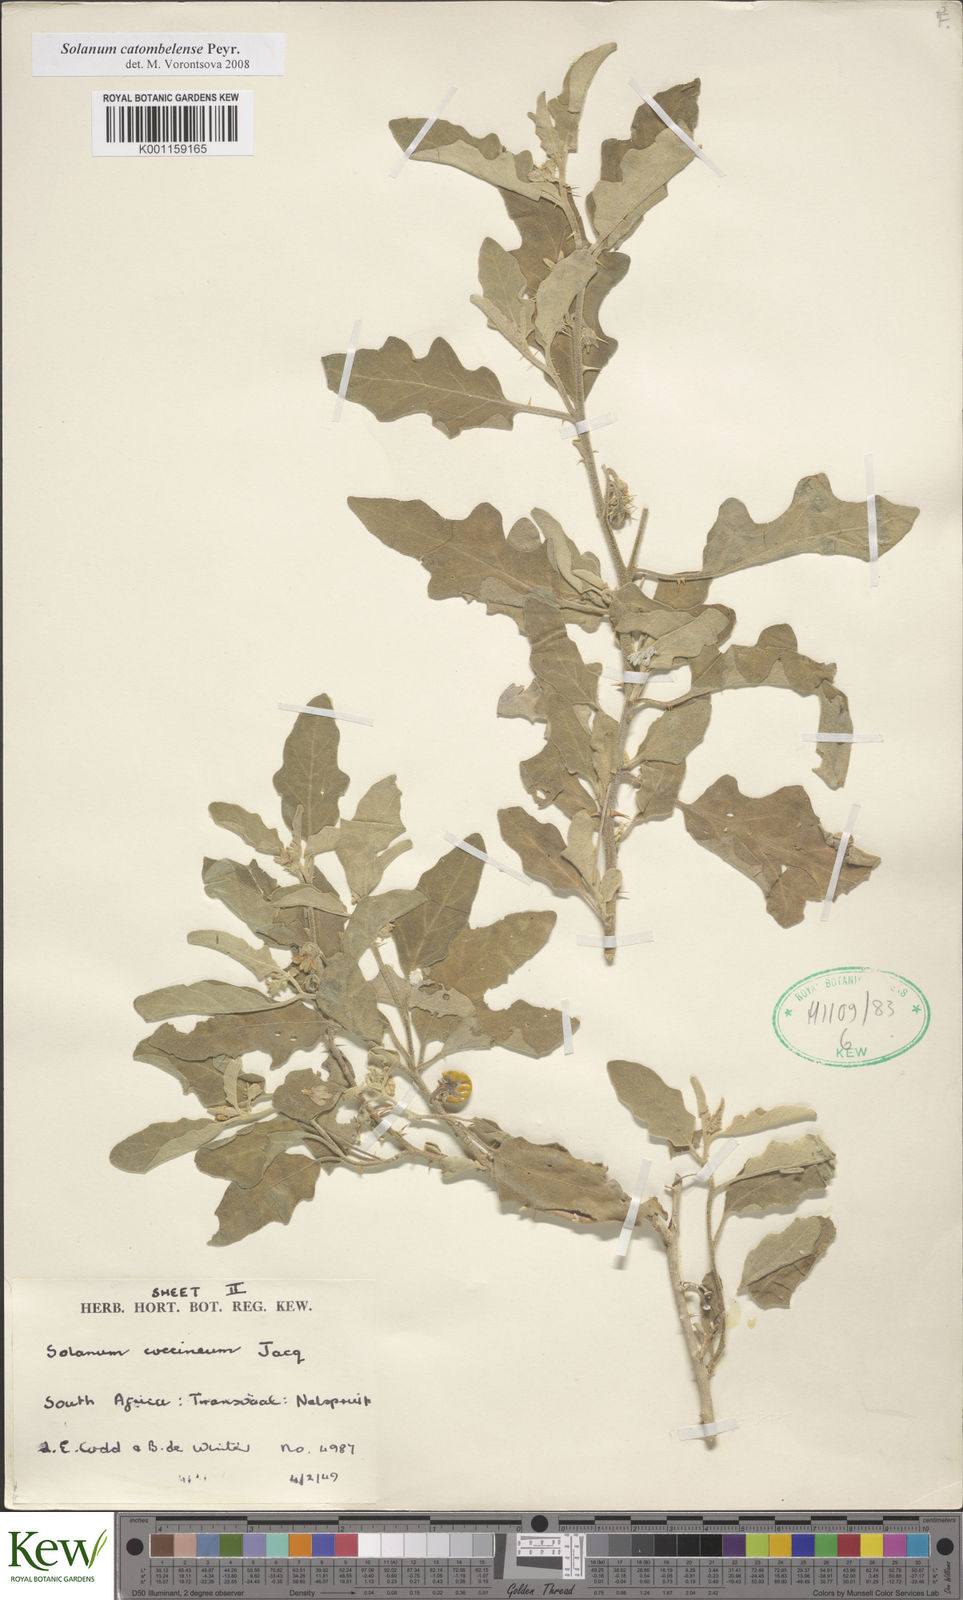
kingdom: Plantae
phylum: Tracheophyta
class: Magnoliopsida
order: Solanales
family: Solanaceae
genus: Solanum
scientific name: Solanum catombelense
